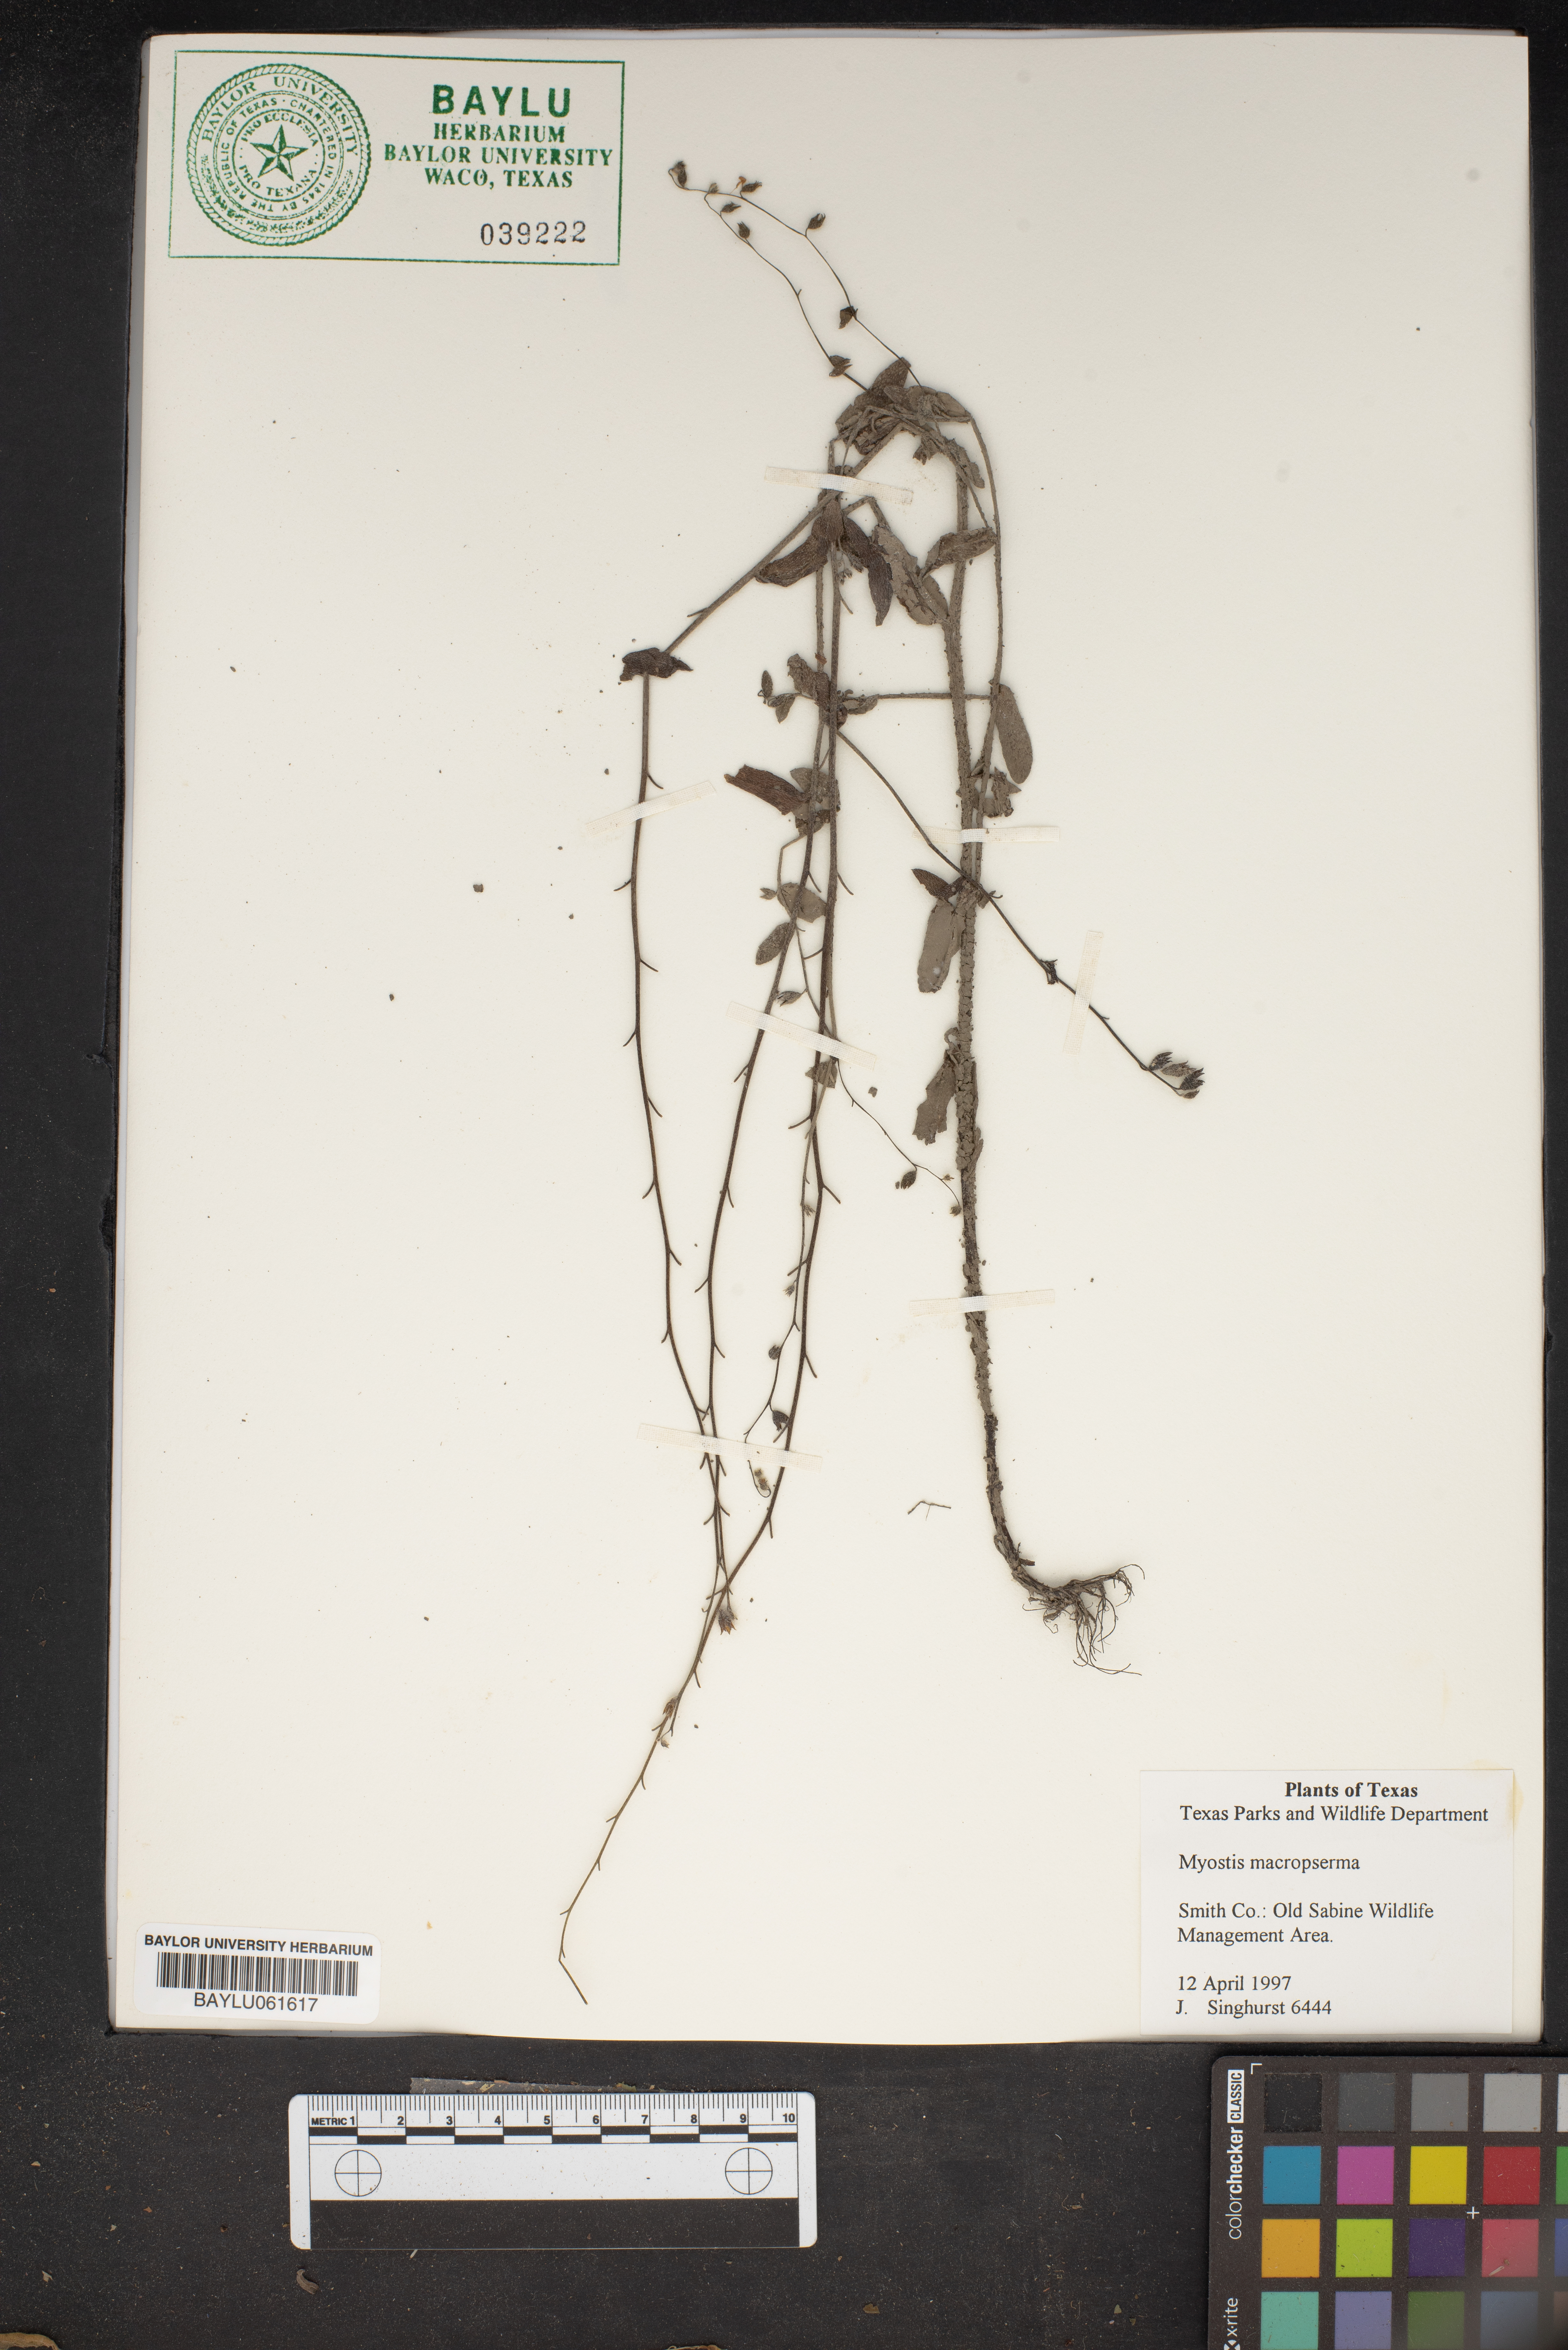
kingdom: Plantae
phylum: Tracheophyta
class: Magnoliopsida
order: Boraginales
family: Boraginaceae
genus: Myosotis
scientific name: Myosotis macrosperma
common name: Large-seed forget-me-not
